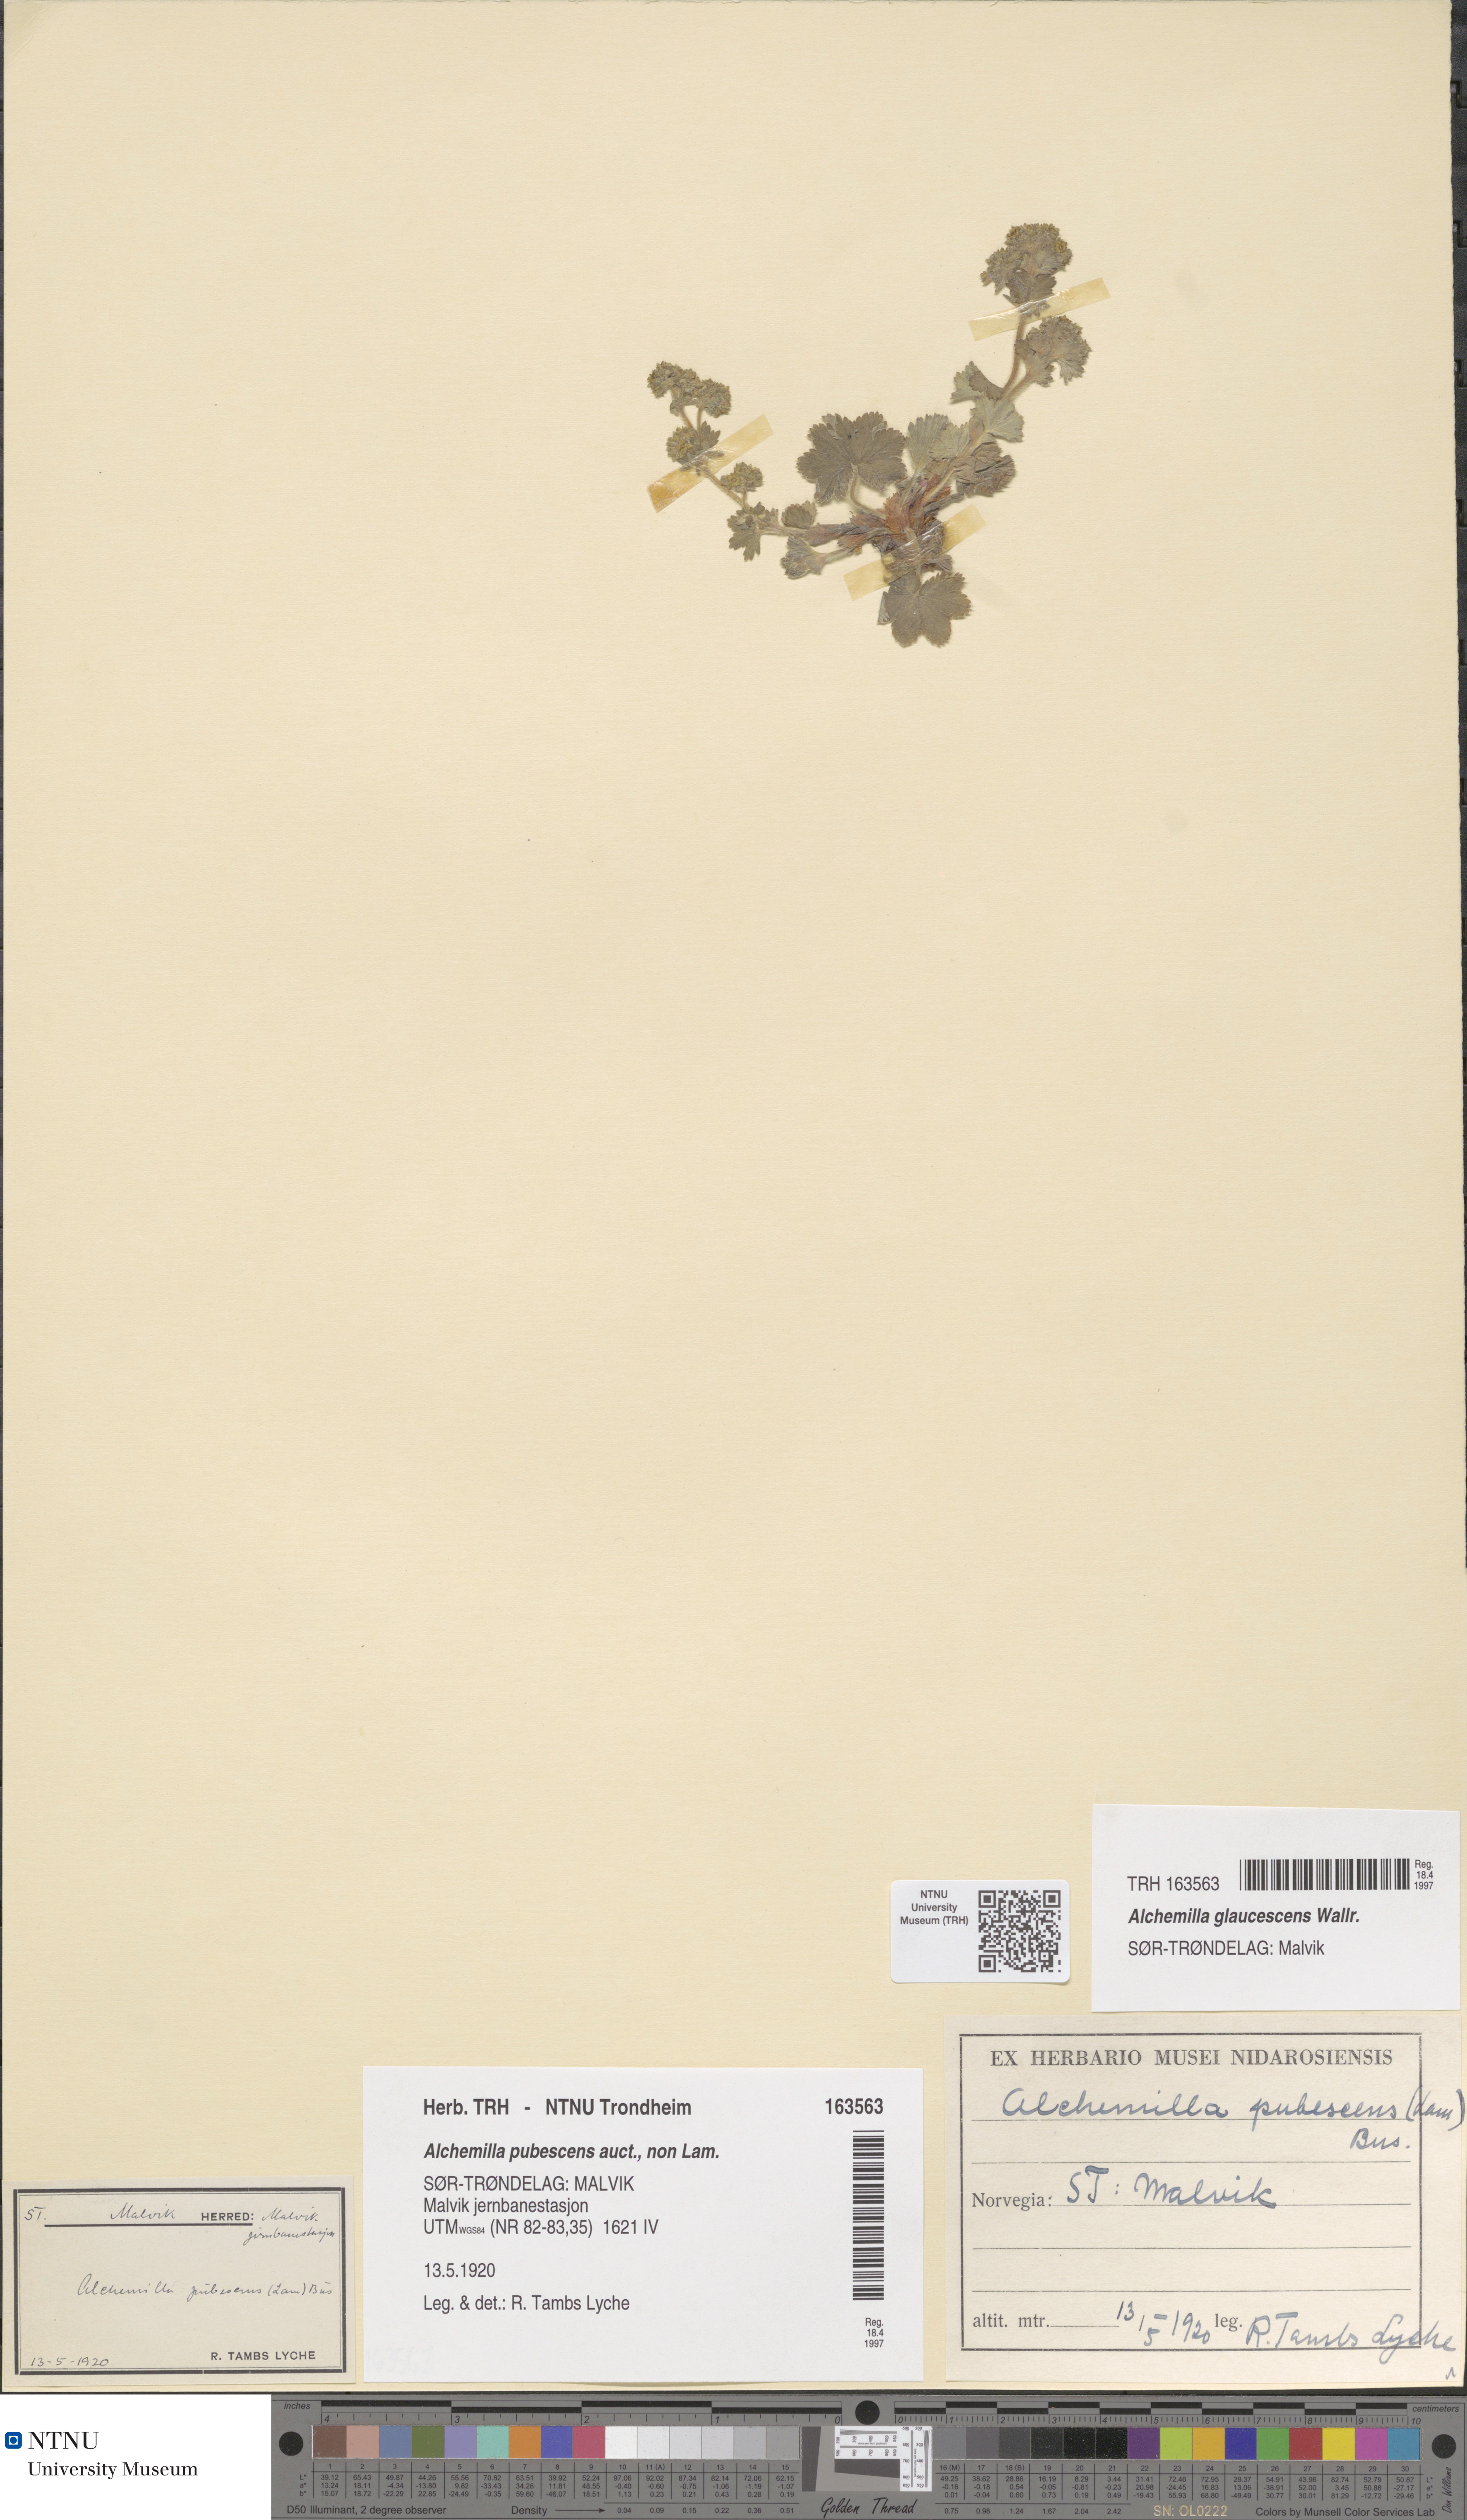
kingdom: Plantae
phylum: Tracheophyta
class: Magnoliopsida
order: Rosales
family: Rosaceae
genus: Alchemilla
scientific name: Alchemilla glaucescens
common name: Silky lady's mantle
